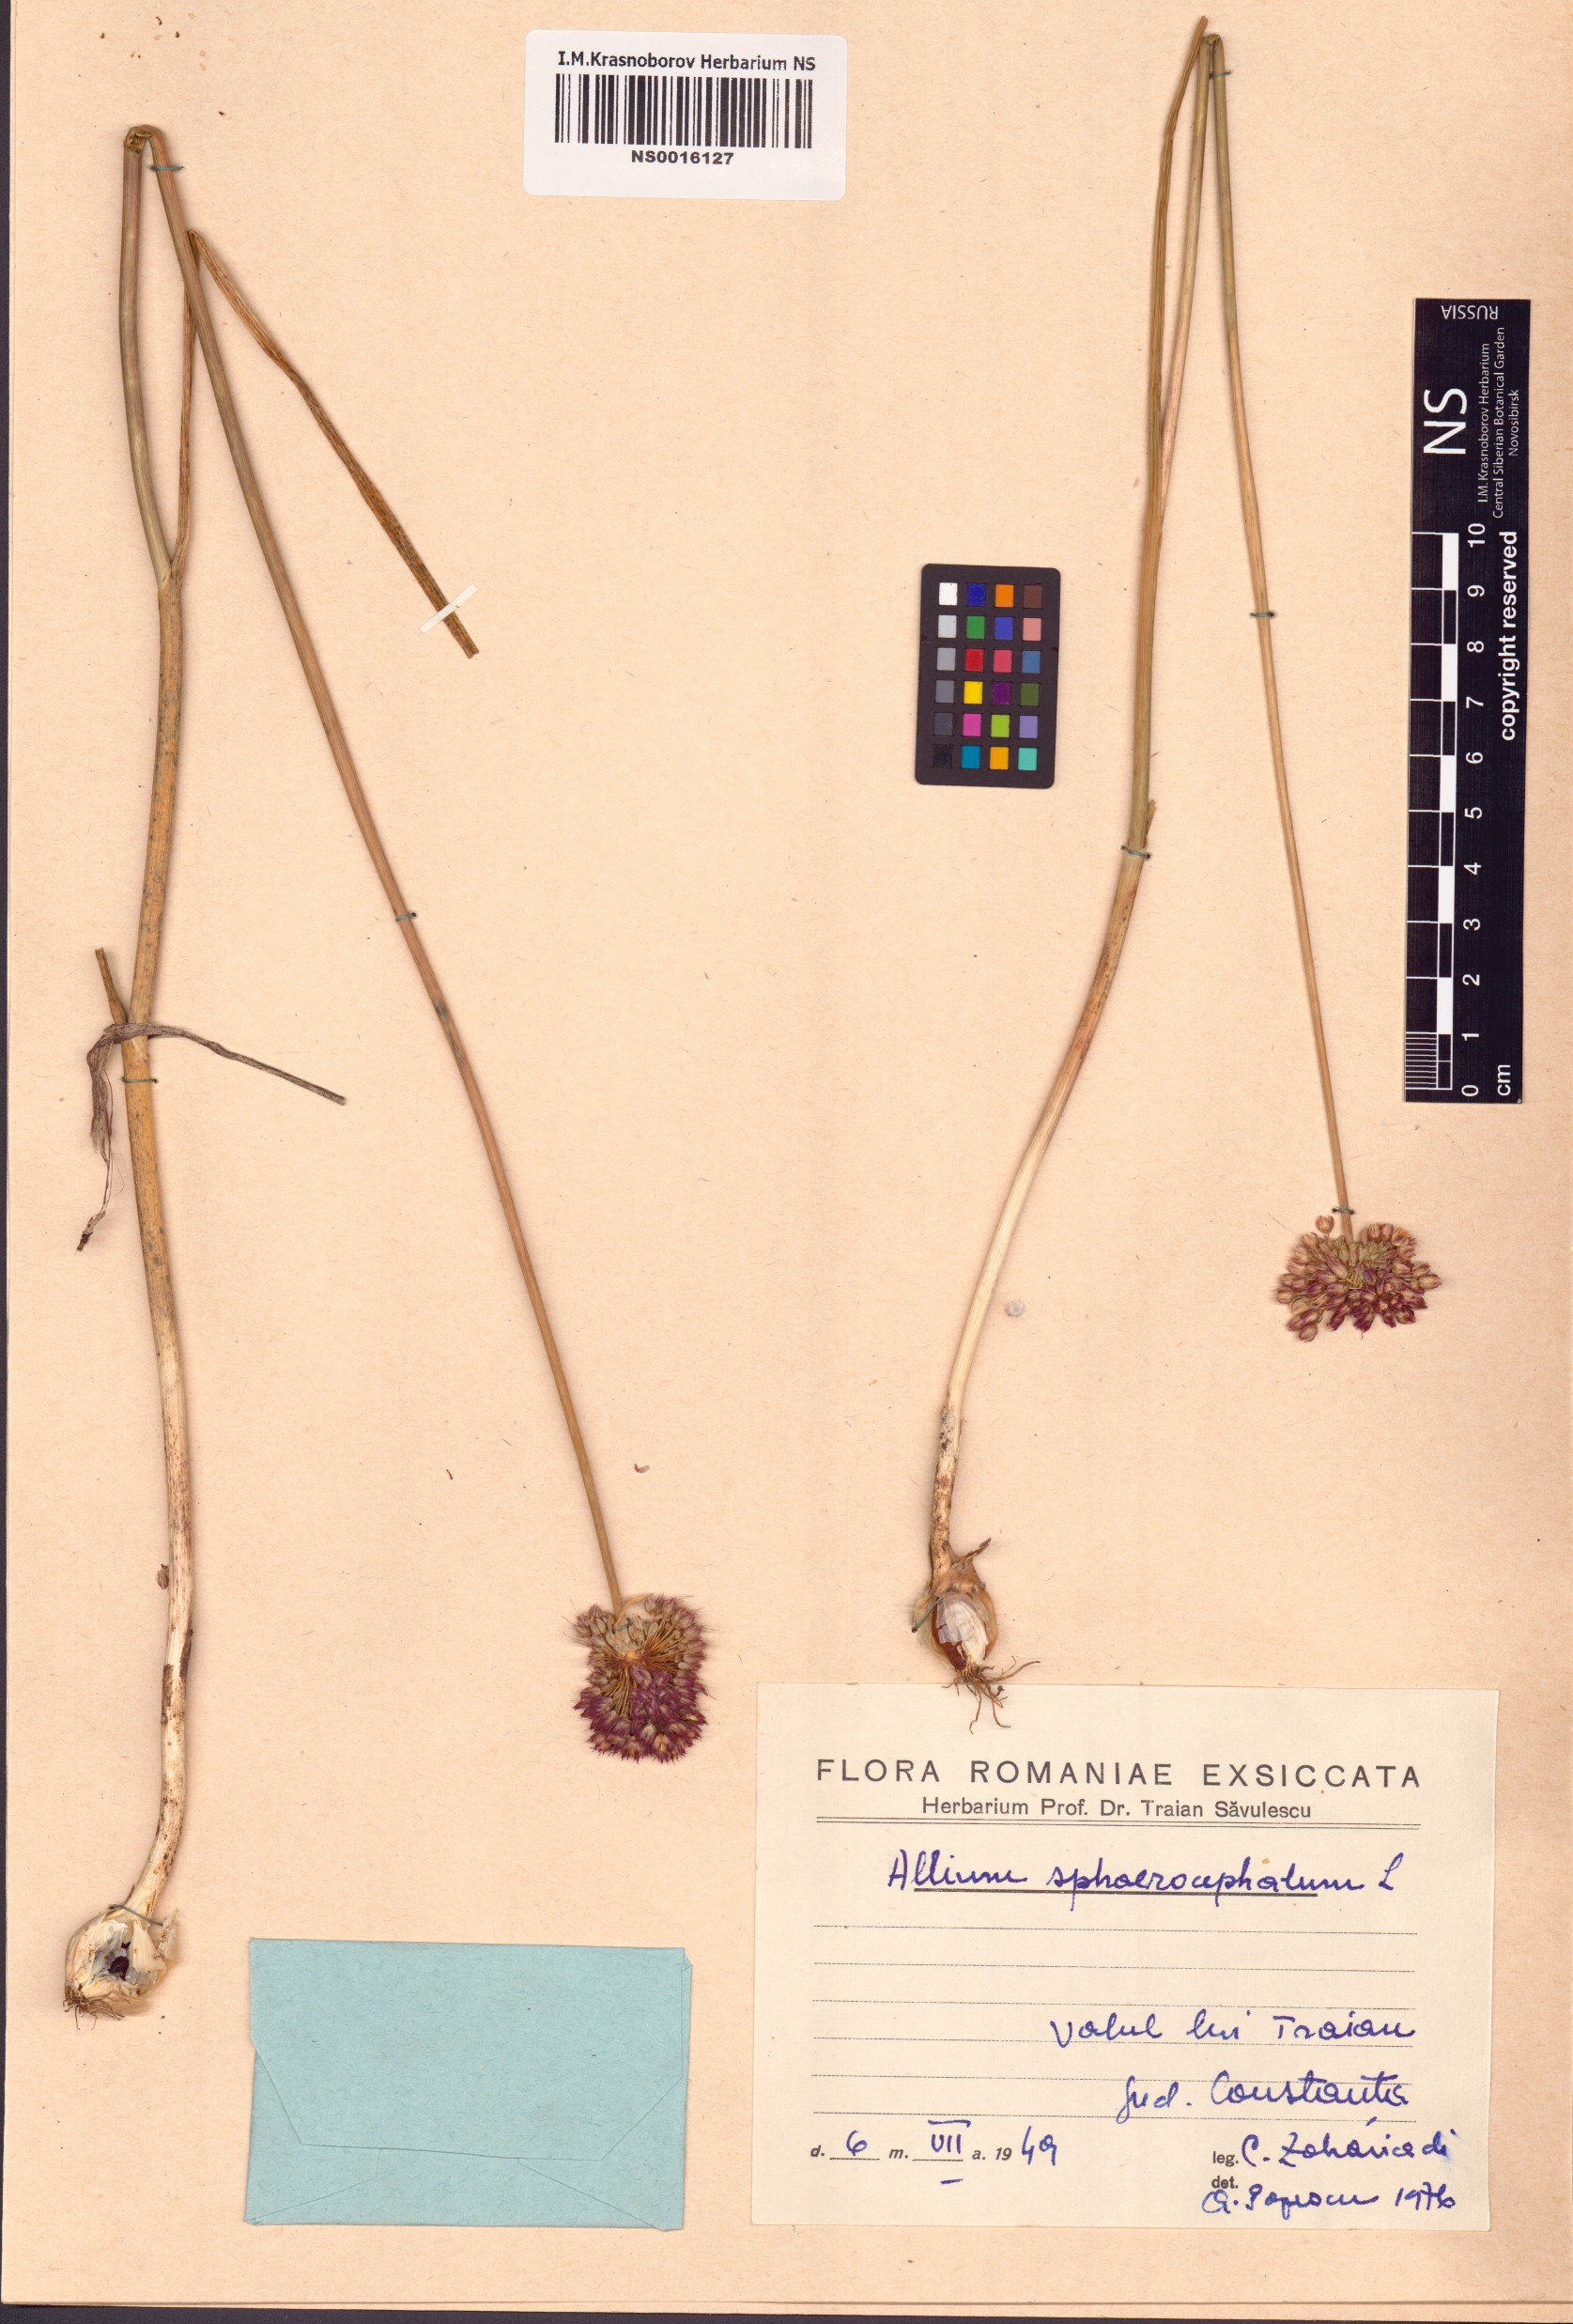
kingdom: Plantae
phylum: Tracheophyta
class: Liliopsida
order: Asparagales
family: Amaryllidaceae
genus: Allium
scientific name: Allium sphaerocephalon
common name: Round-headed leek
